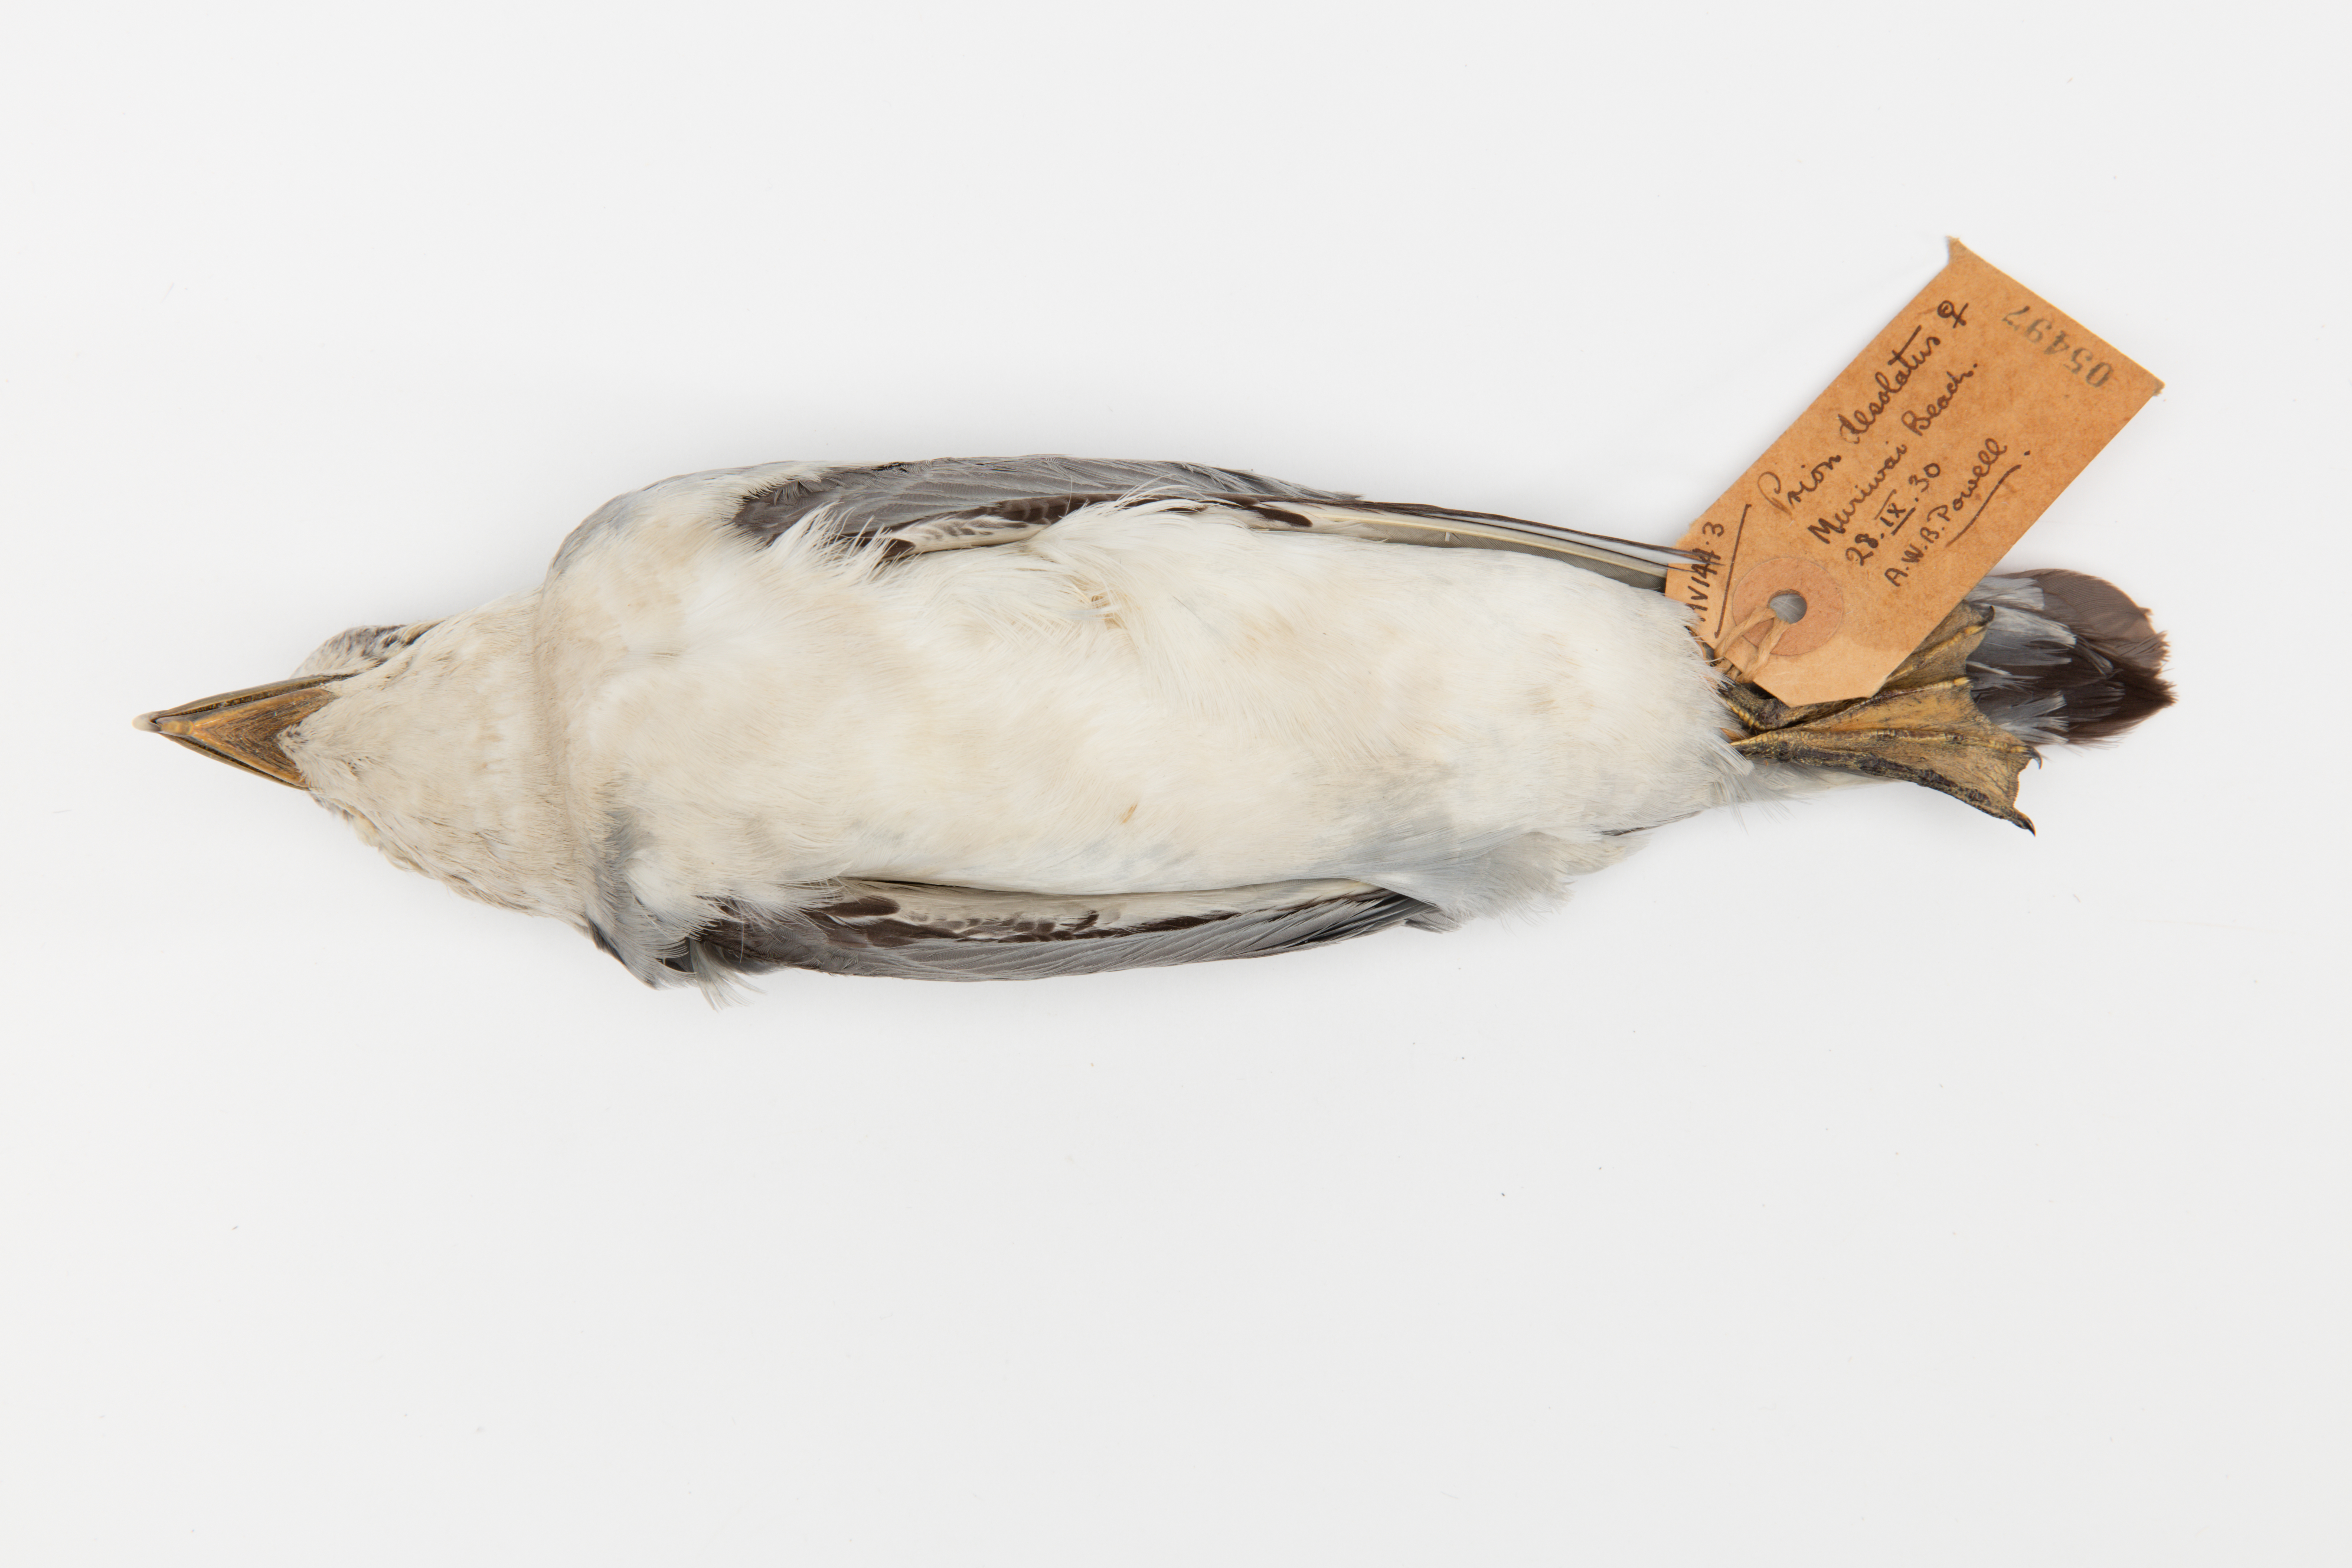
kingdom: Animalia
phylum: Chordata
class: Aves
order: Procellariiformes
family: Procellariidae
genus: Pachyptila
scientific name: Pachyptila desolata
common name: Antarctic prion
